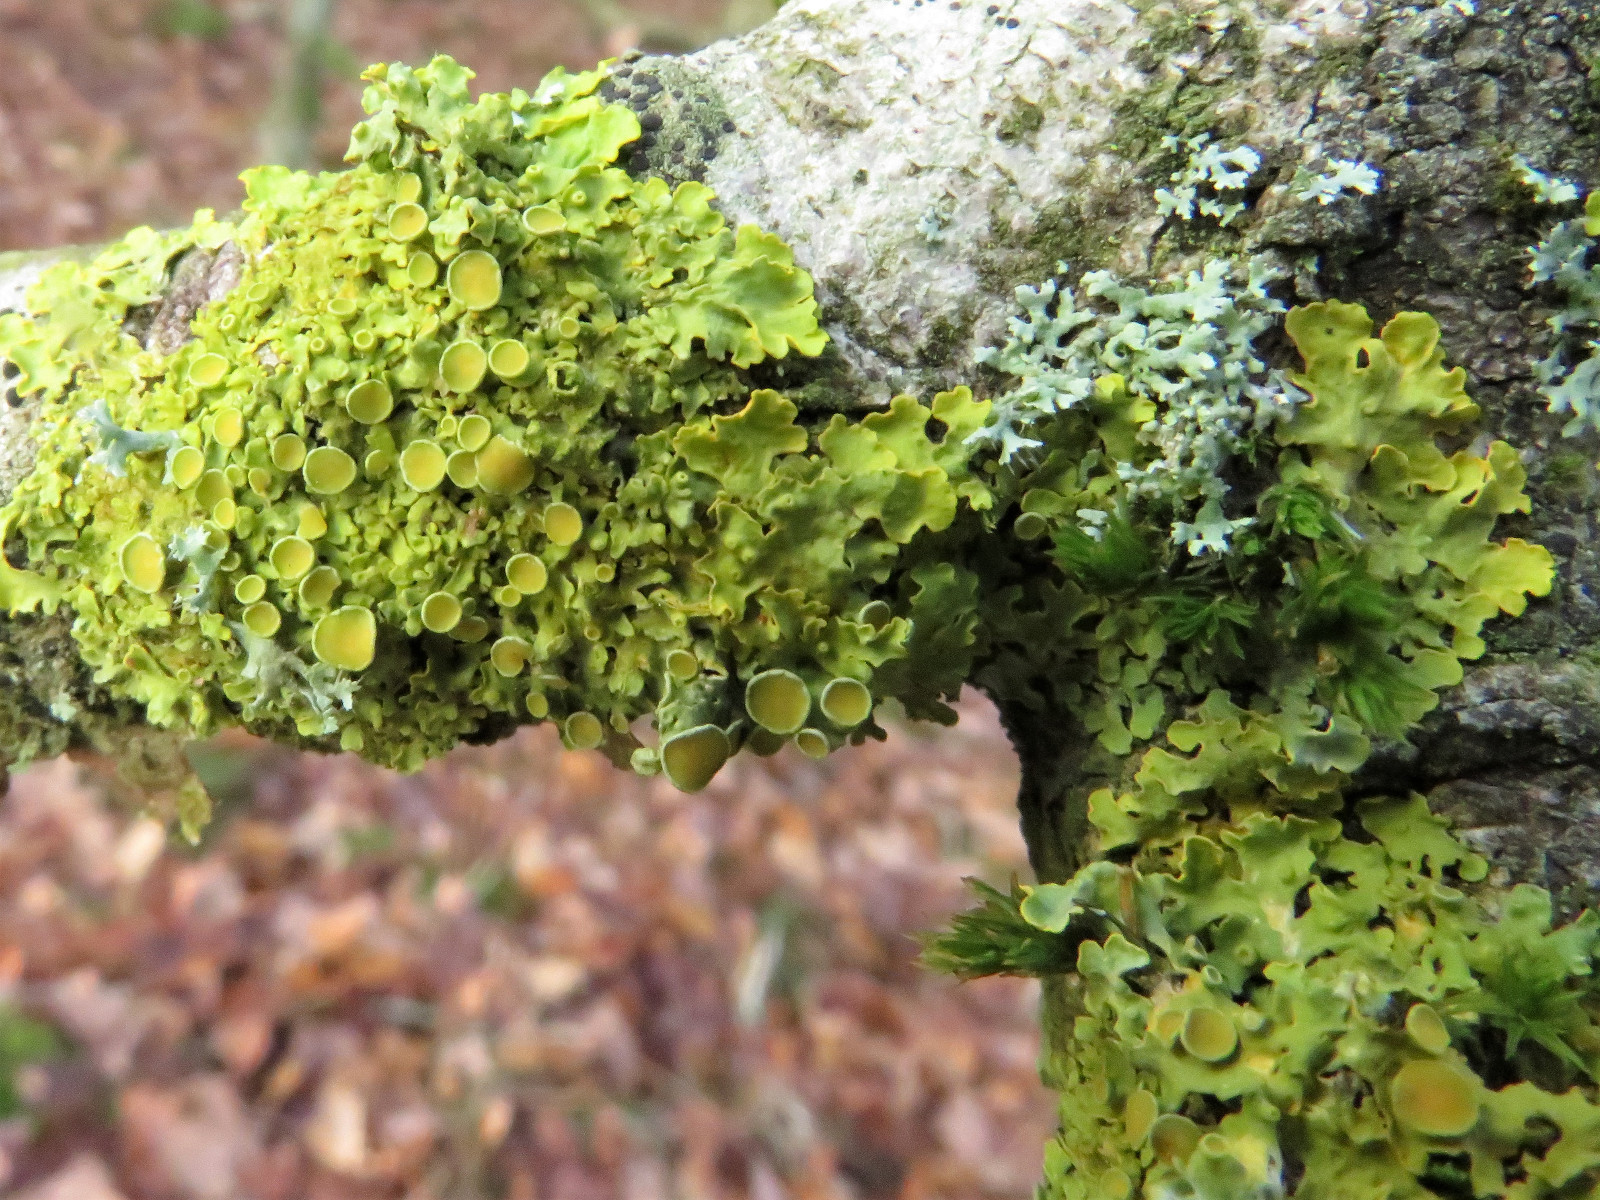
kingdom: Fungi
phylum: Ascomycota
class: Lecanoromycetes
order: Teloschistales
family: Teloschistaceae
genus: Xanthoria
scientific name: Xanthoria parietina
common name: almindelig væggelav
